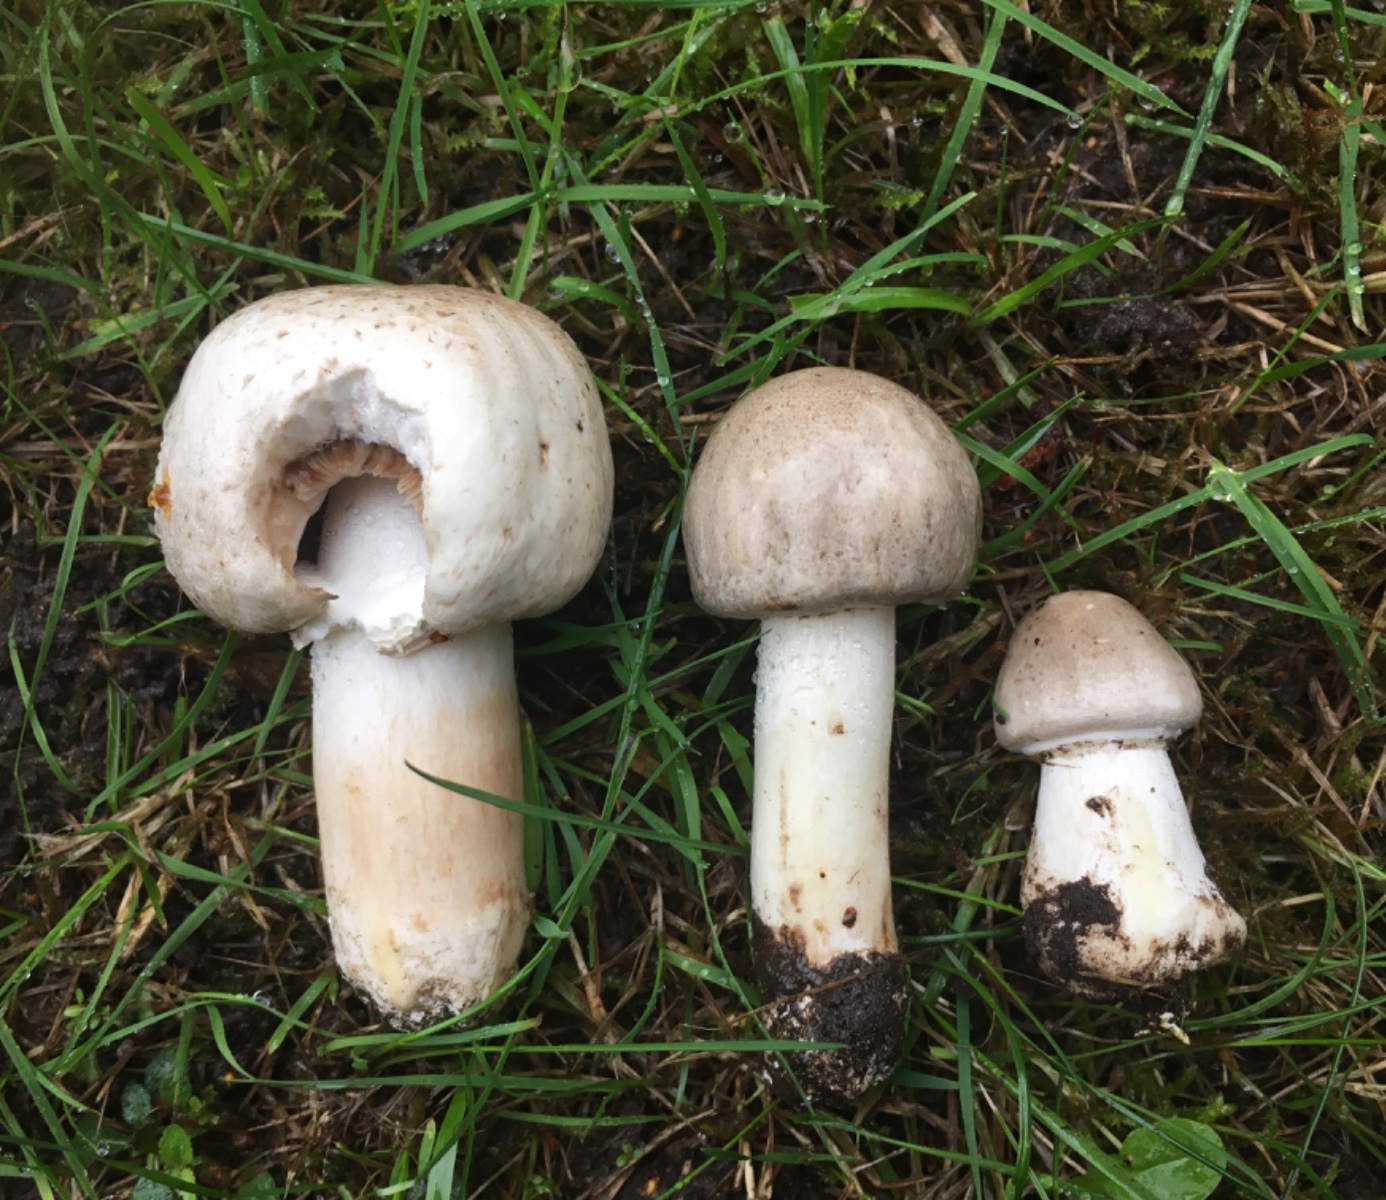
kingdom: Fungi
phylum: Basidiomycota
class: Agaricomycetes
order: Agaricales
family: Agaricaceae
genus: Agaricus
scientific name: Agaricus moelleri
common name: perlehøne-champignon
